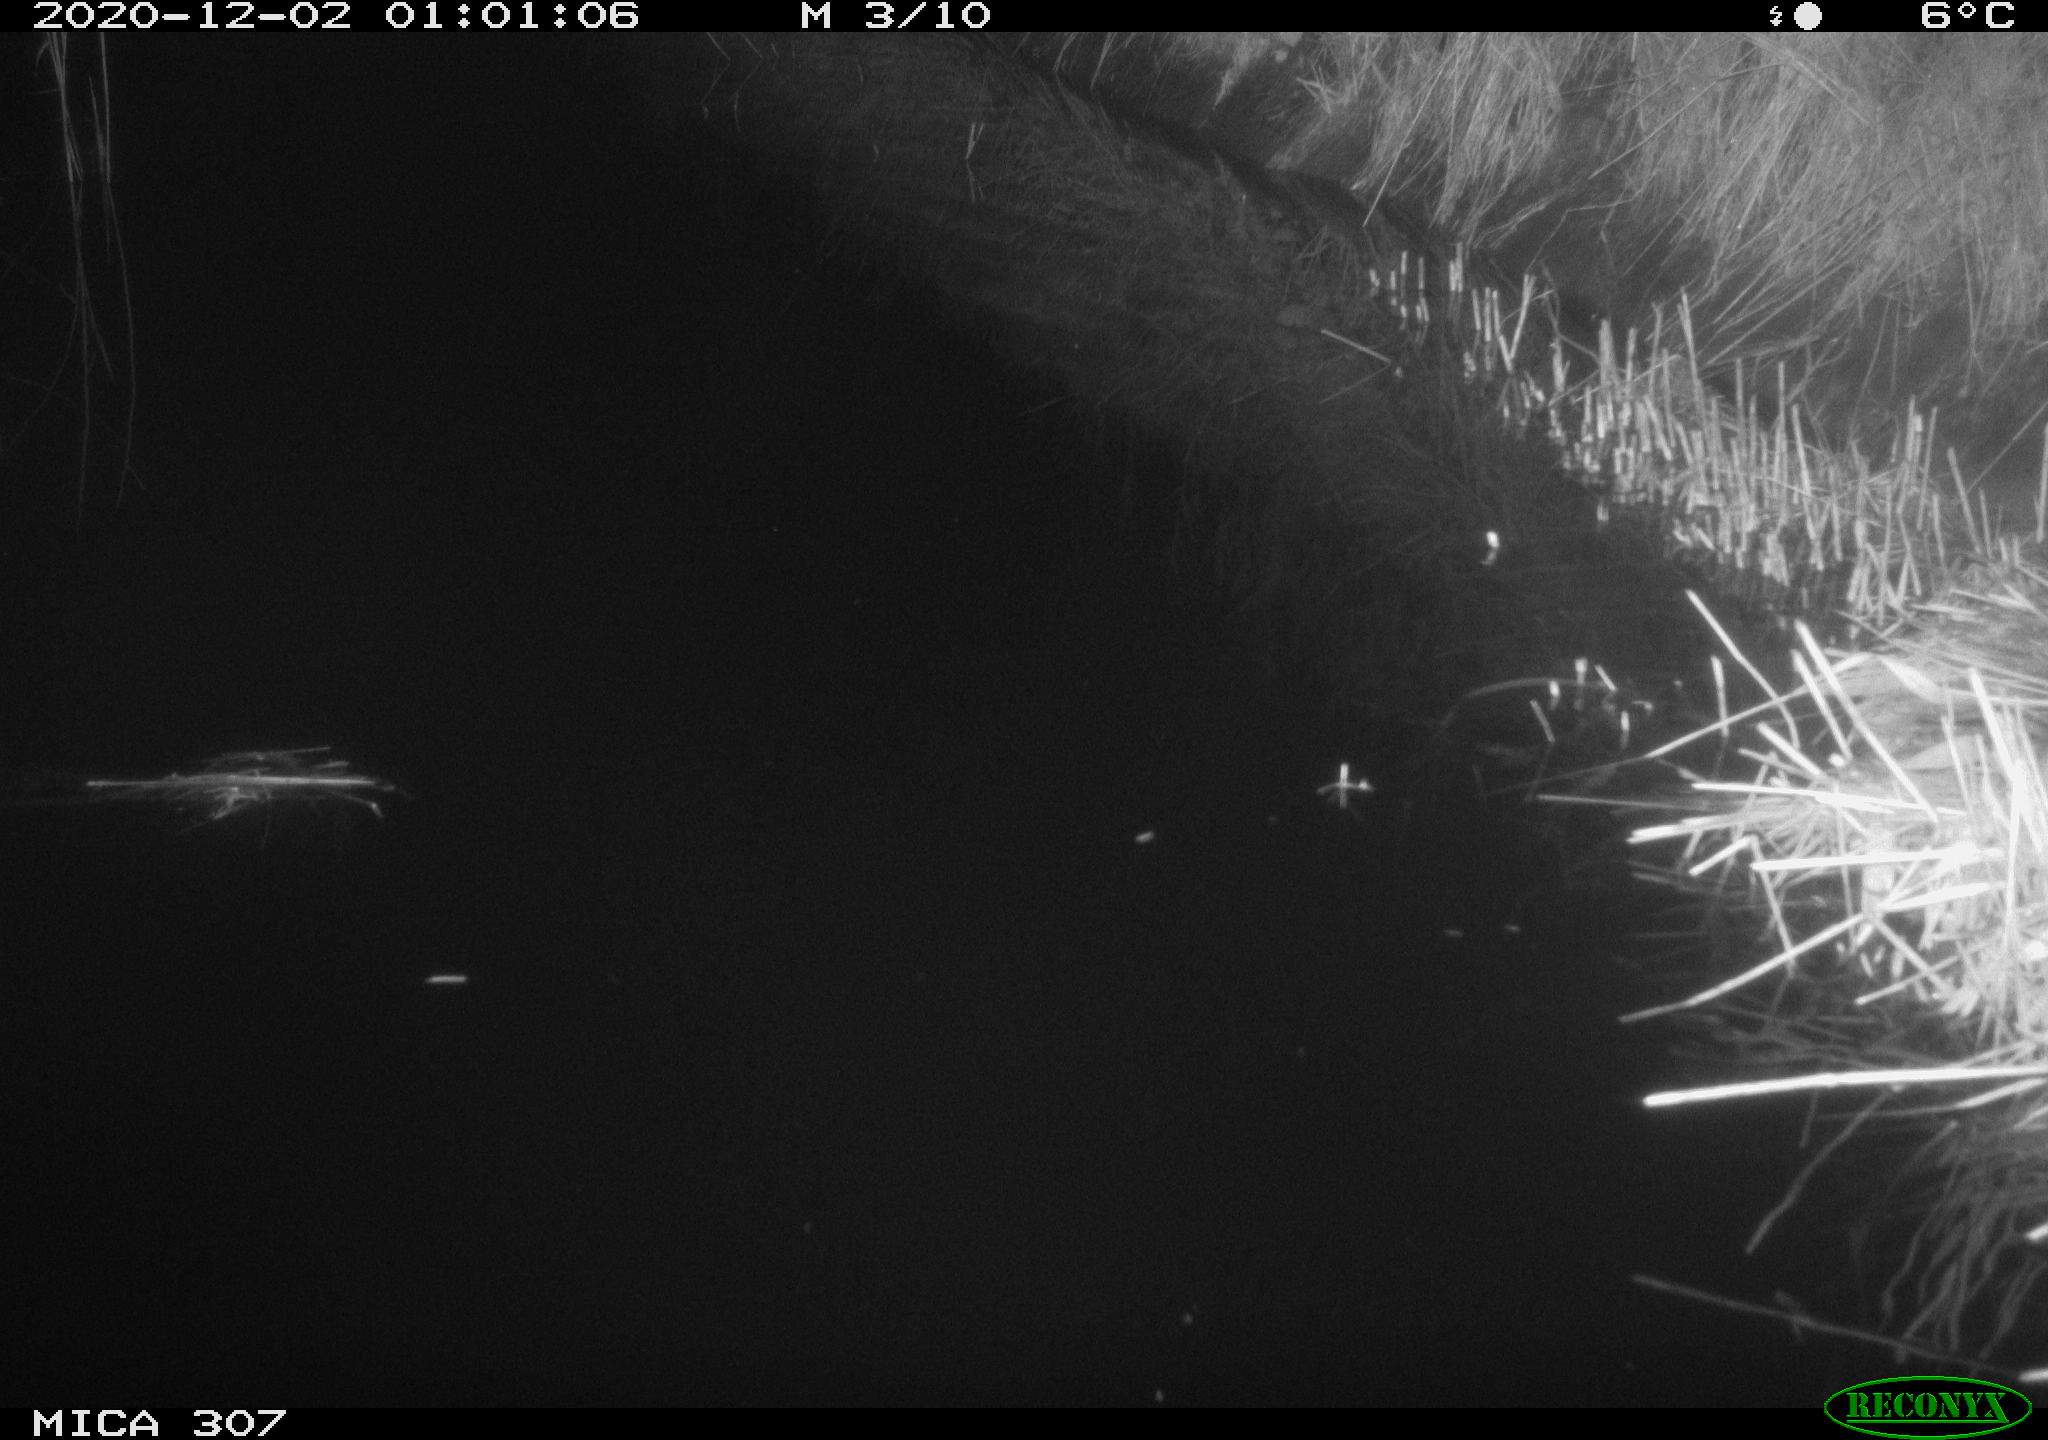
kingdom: Animalia
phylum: Chordata
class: Mammalia
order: Rodentia
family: Muridae
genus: Rattus
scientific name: Rattus norvegicus
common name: Brown rat
